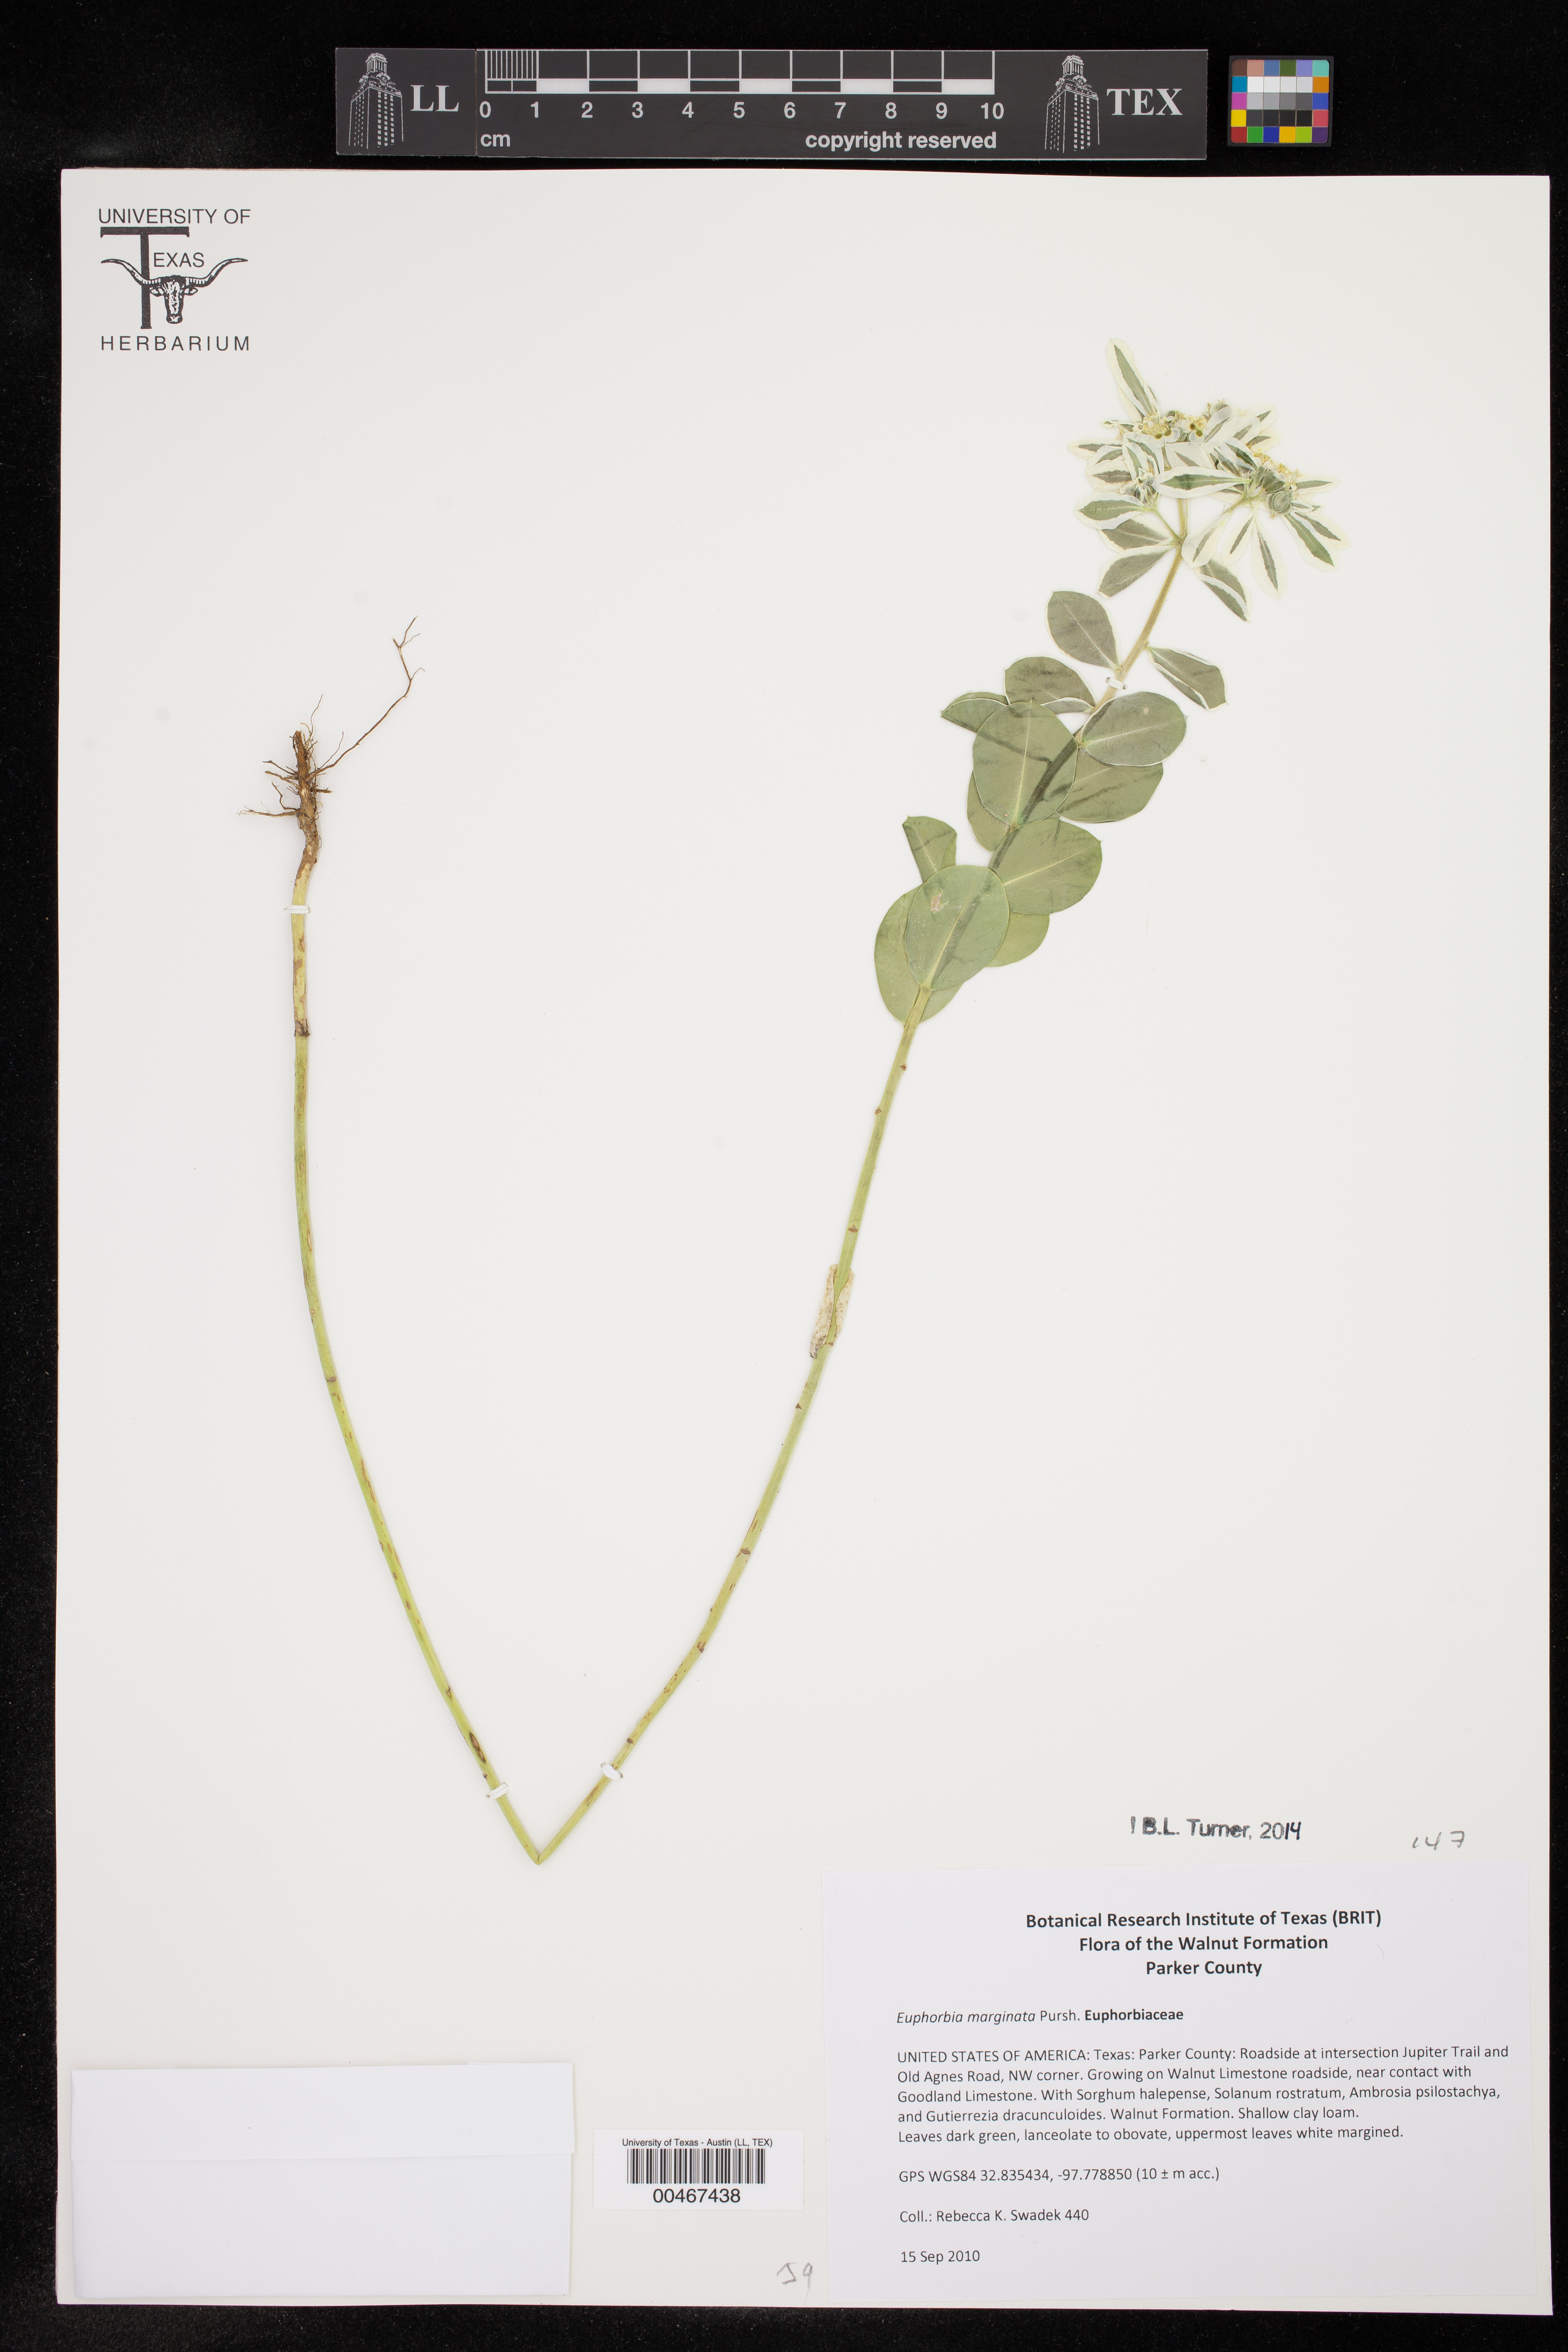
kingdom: Plantae
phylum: Tracheophyta
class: Magnoliopsida
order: Malpighiales
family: Euphorbiaceae
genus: Euphorbia
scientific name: Euphorbia marginata
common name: Ghostweed
